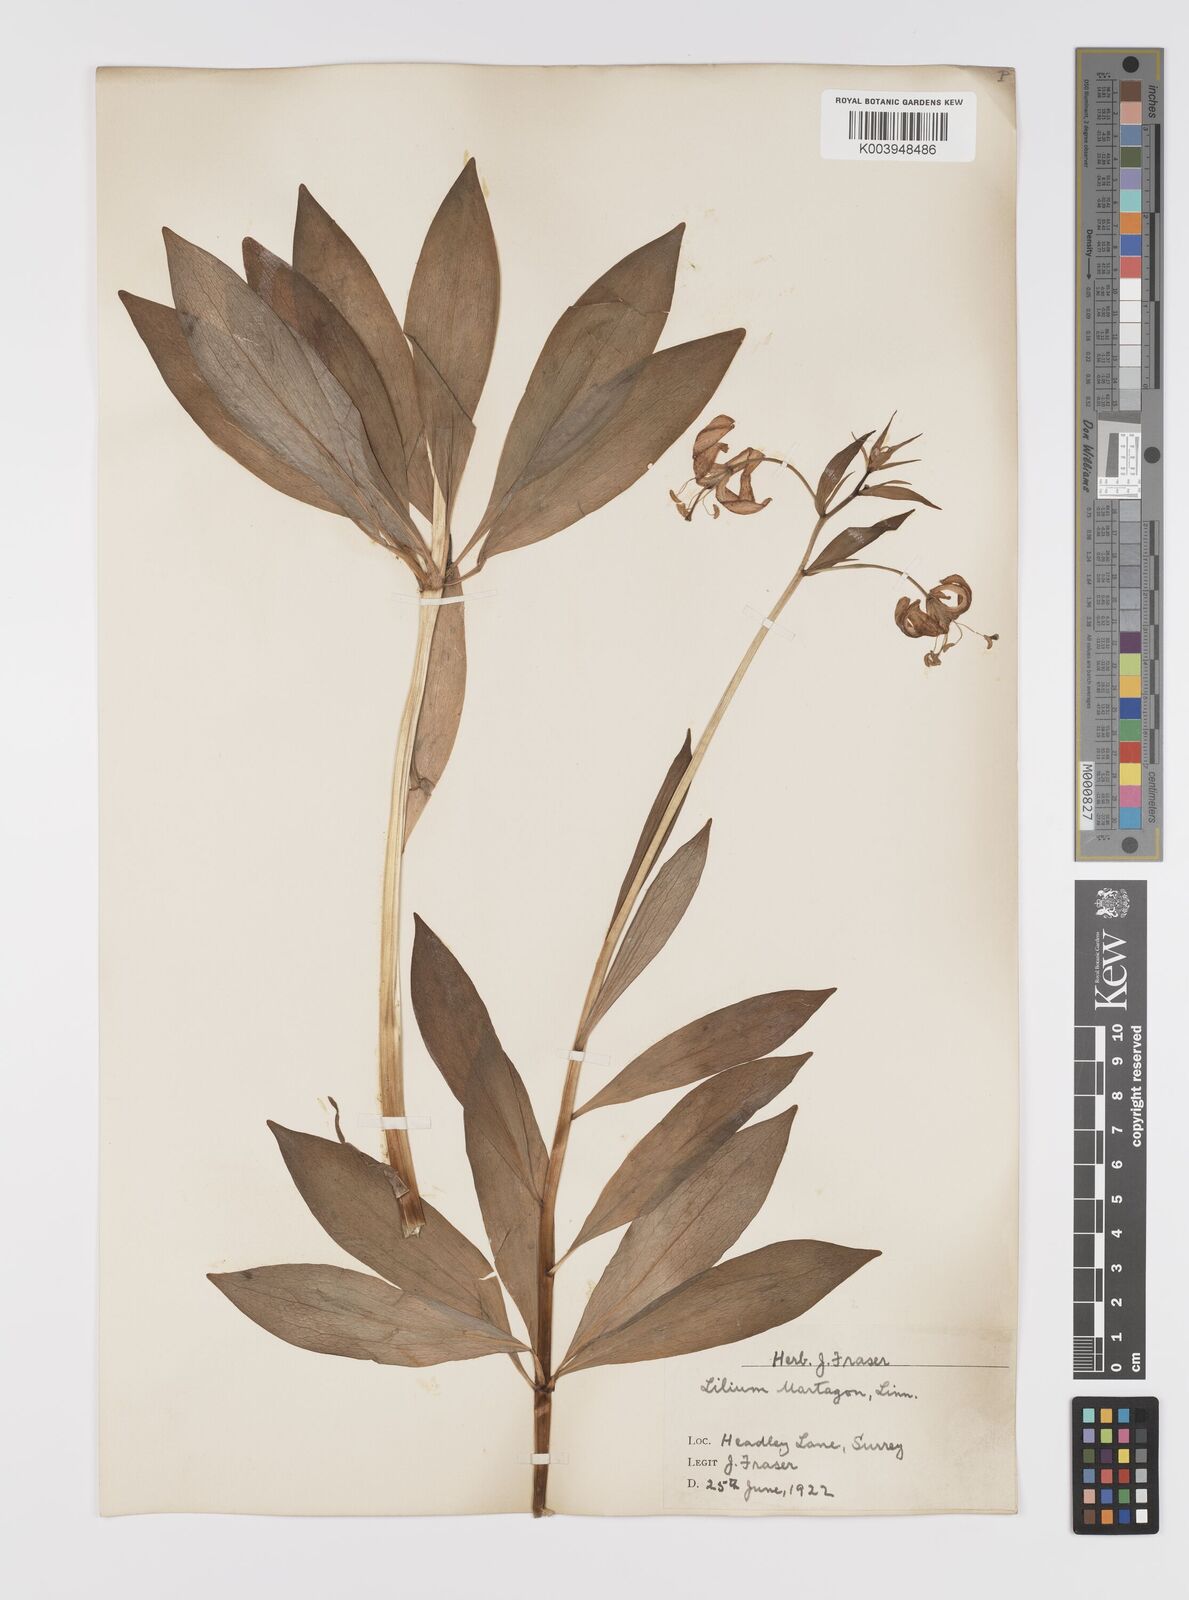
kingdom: Plantae
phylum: Tracheophyta
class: Liliopsida
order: Liliales
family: Liliaceae
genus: Lilium
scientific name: Lilium martagon
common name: Martagon lily
